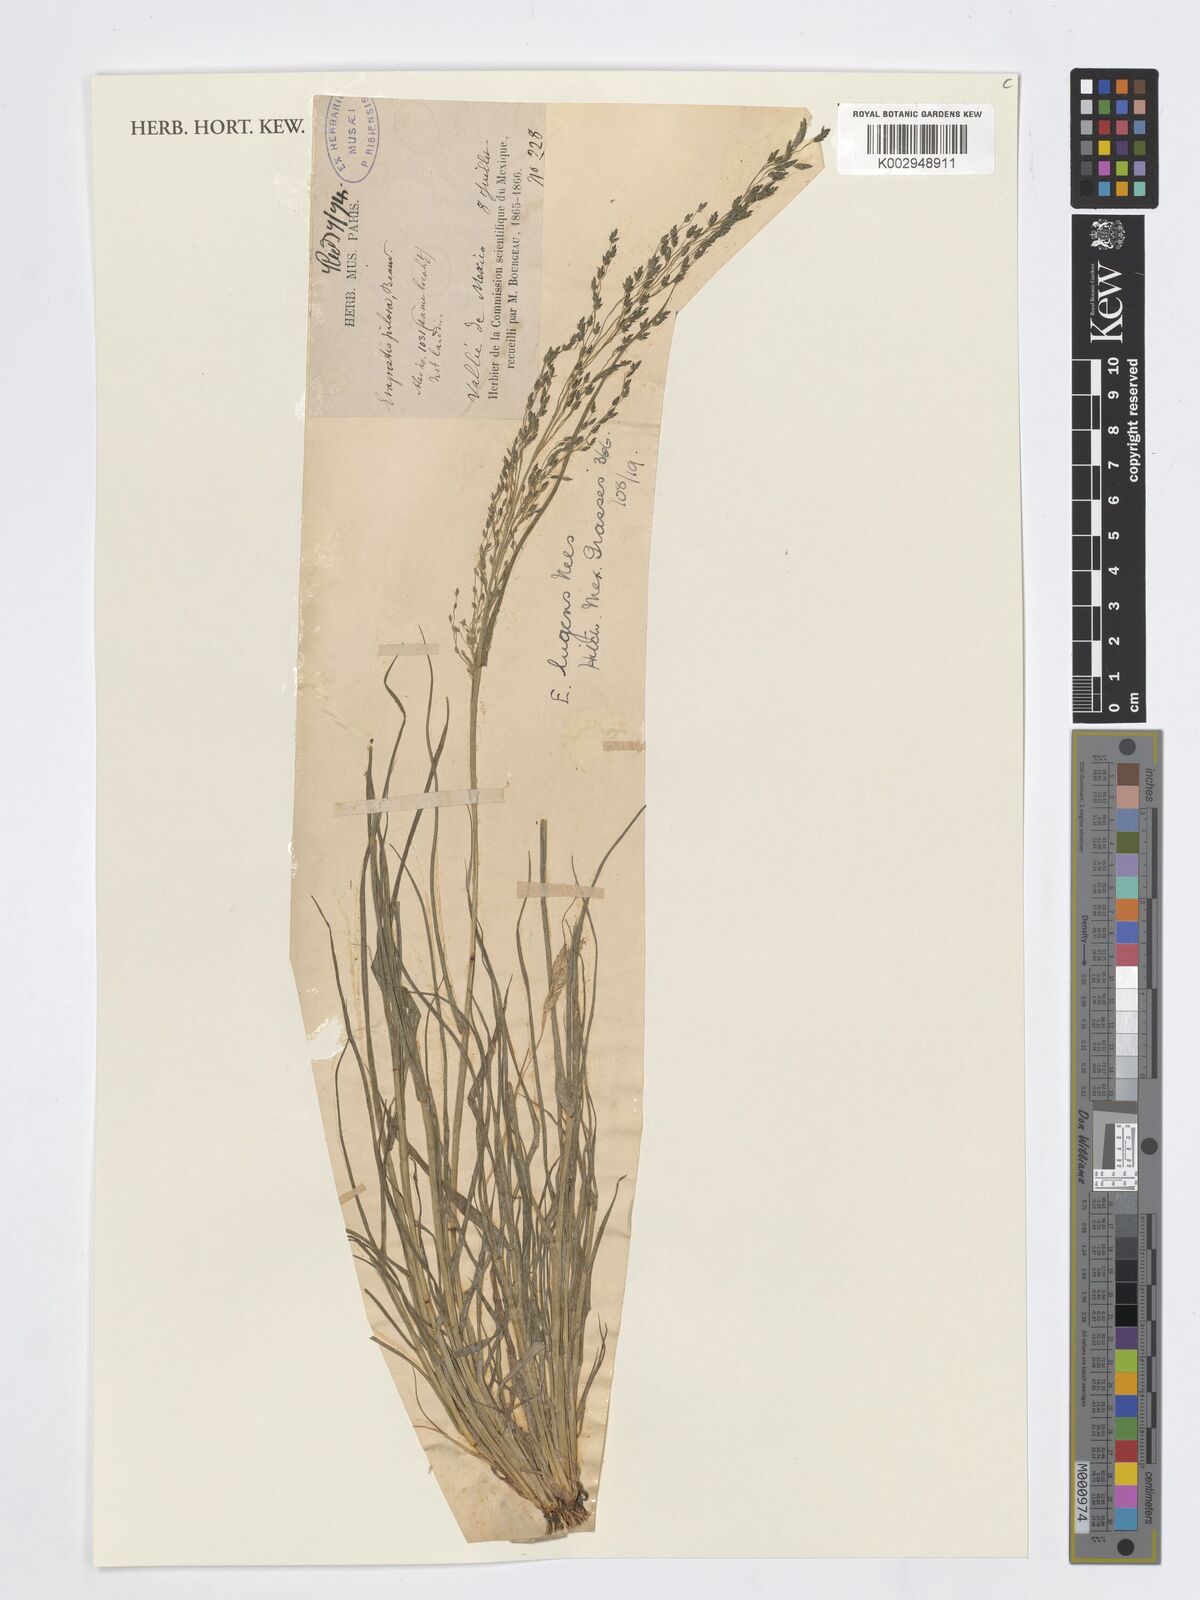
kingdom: Plantae
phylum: Tracheophyta
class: Liliopsida
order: Poales
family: Poaceae
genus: Eragrostis
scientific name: Eragrostis lugens
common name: Mourning love grass
